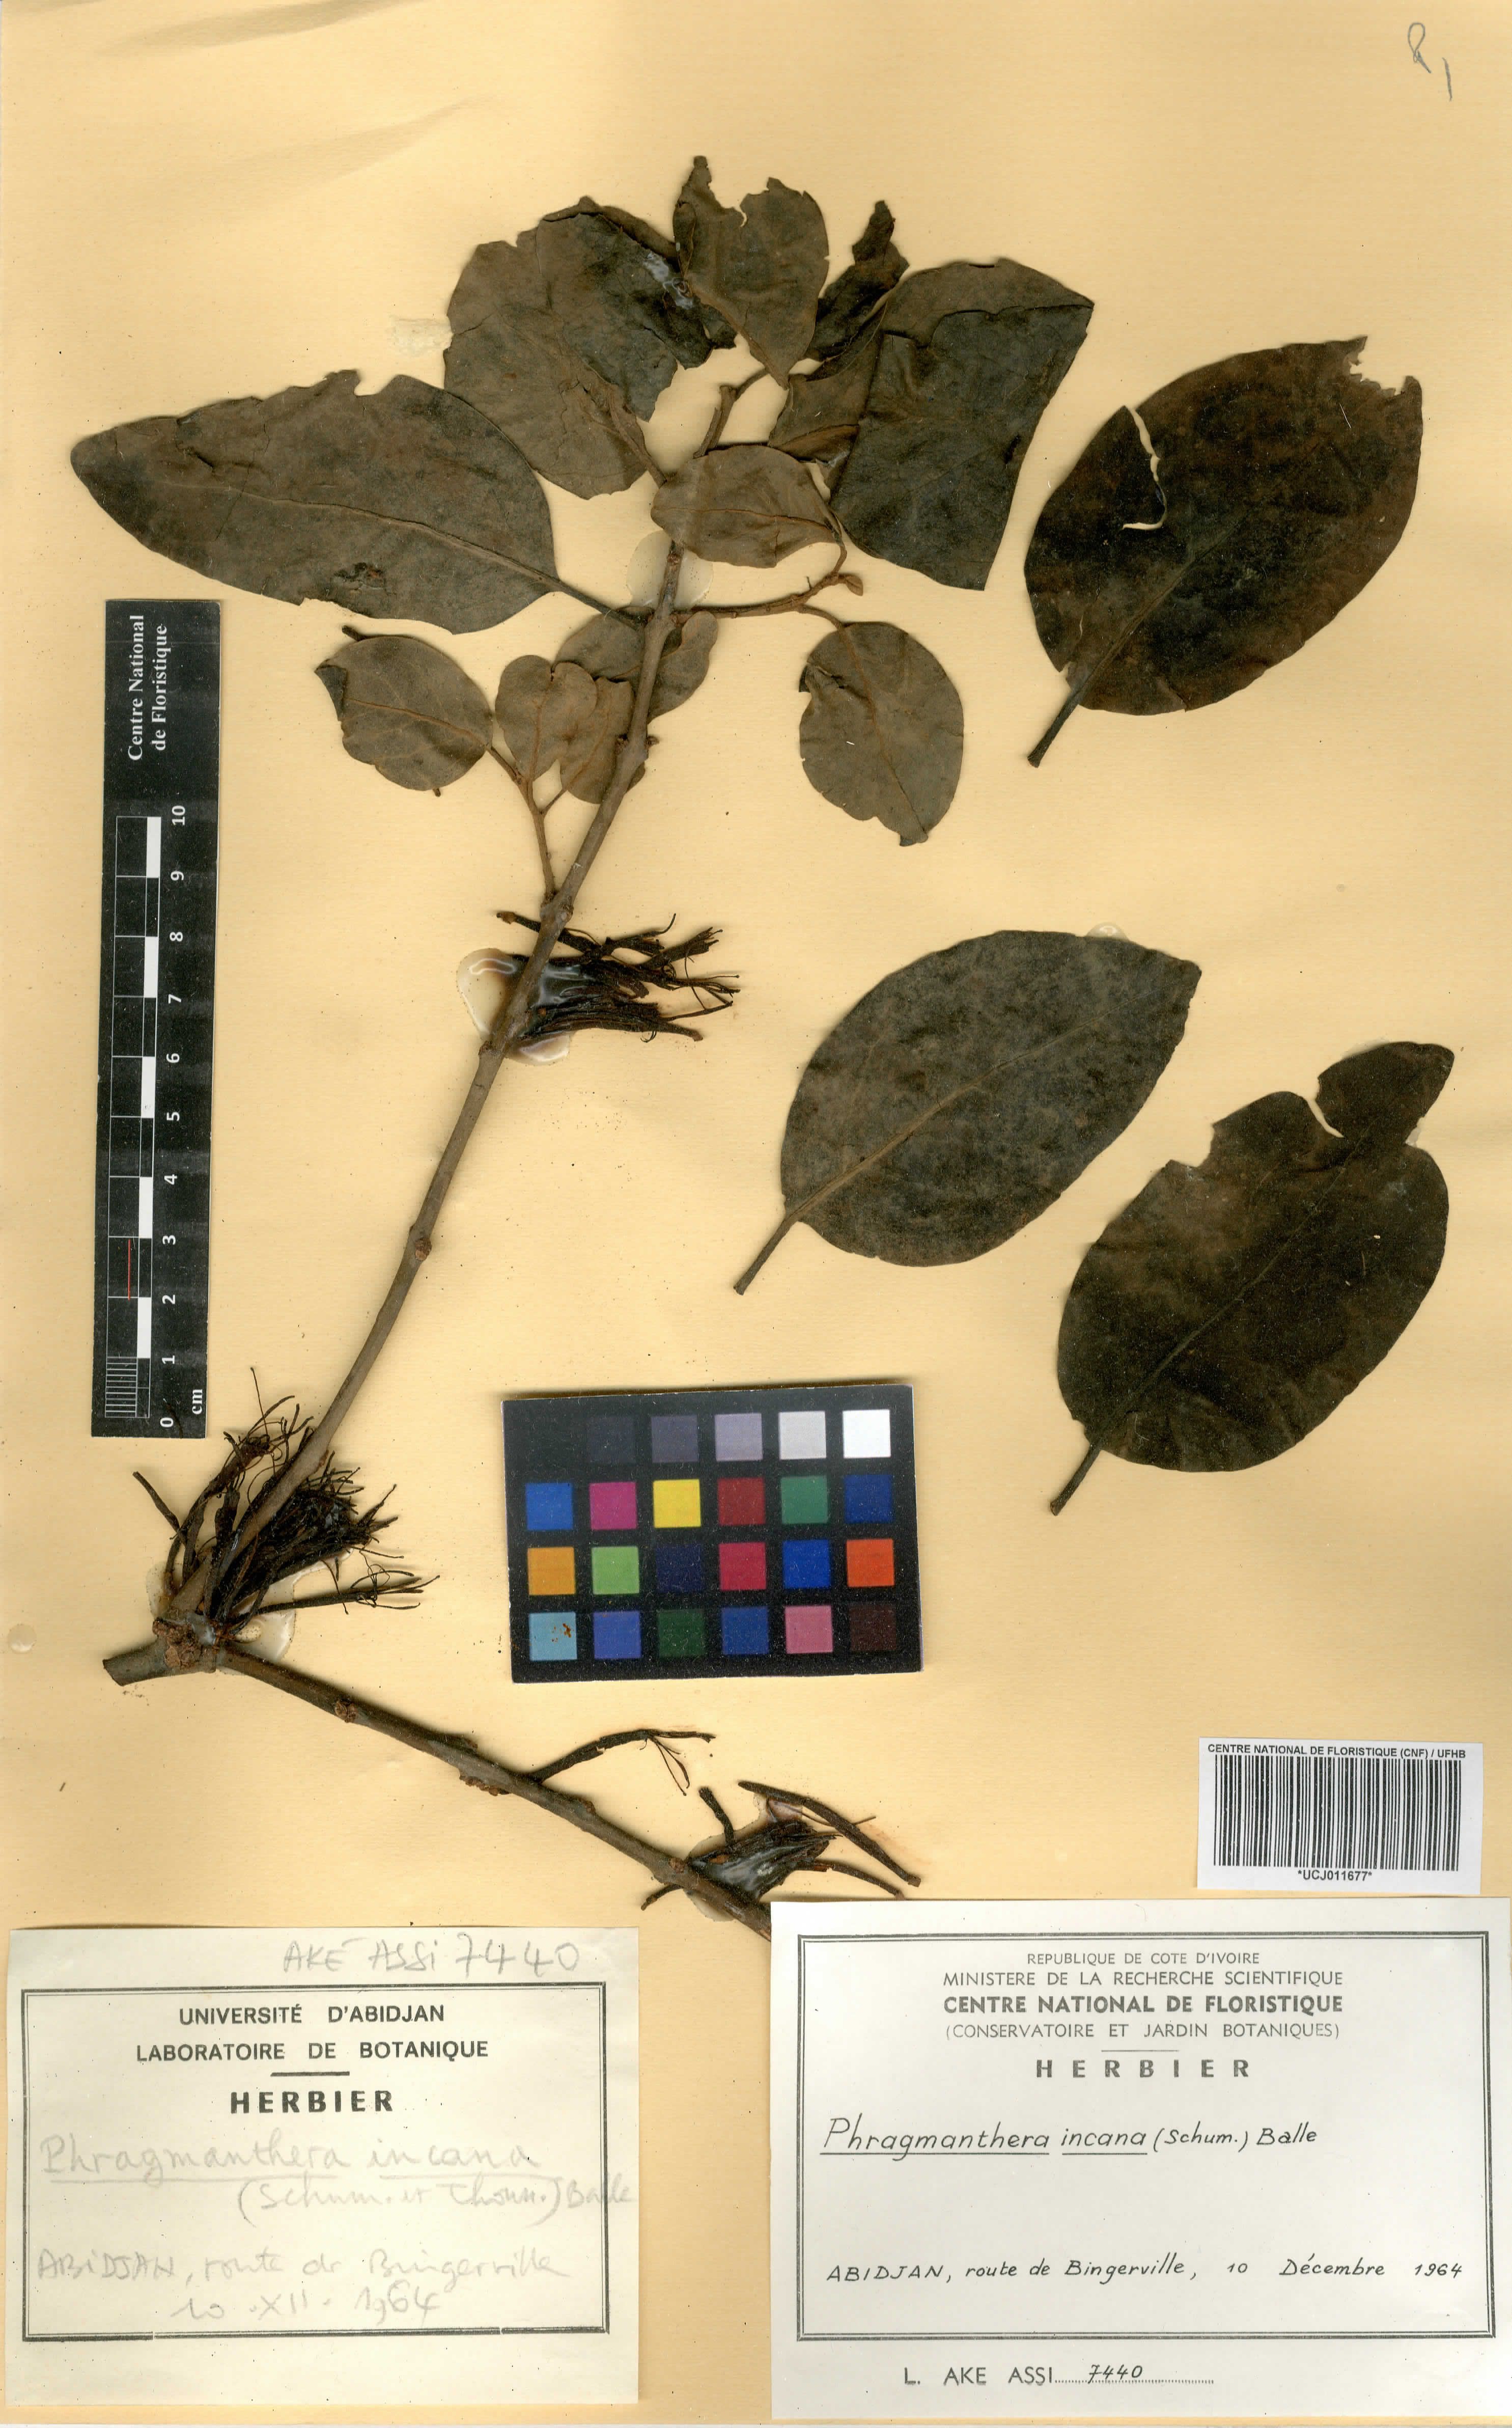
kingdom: Plantae
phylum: Tracheophyta
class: Magnoliopsida
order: Santalales
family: Loranthaceae
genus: Phragmanthera
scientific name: Phragmanthera capitata
